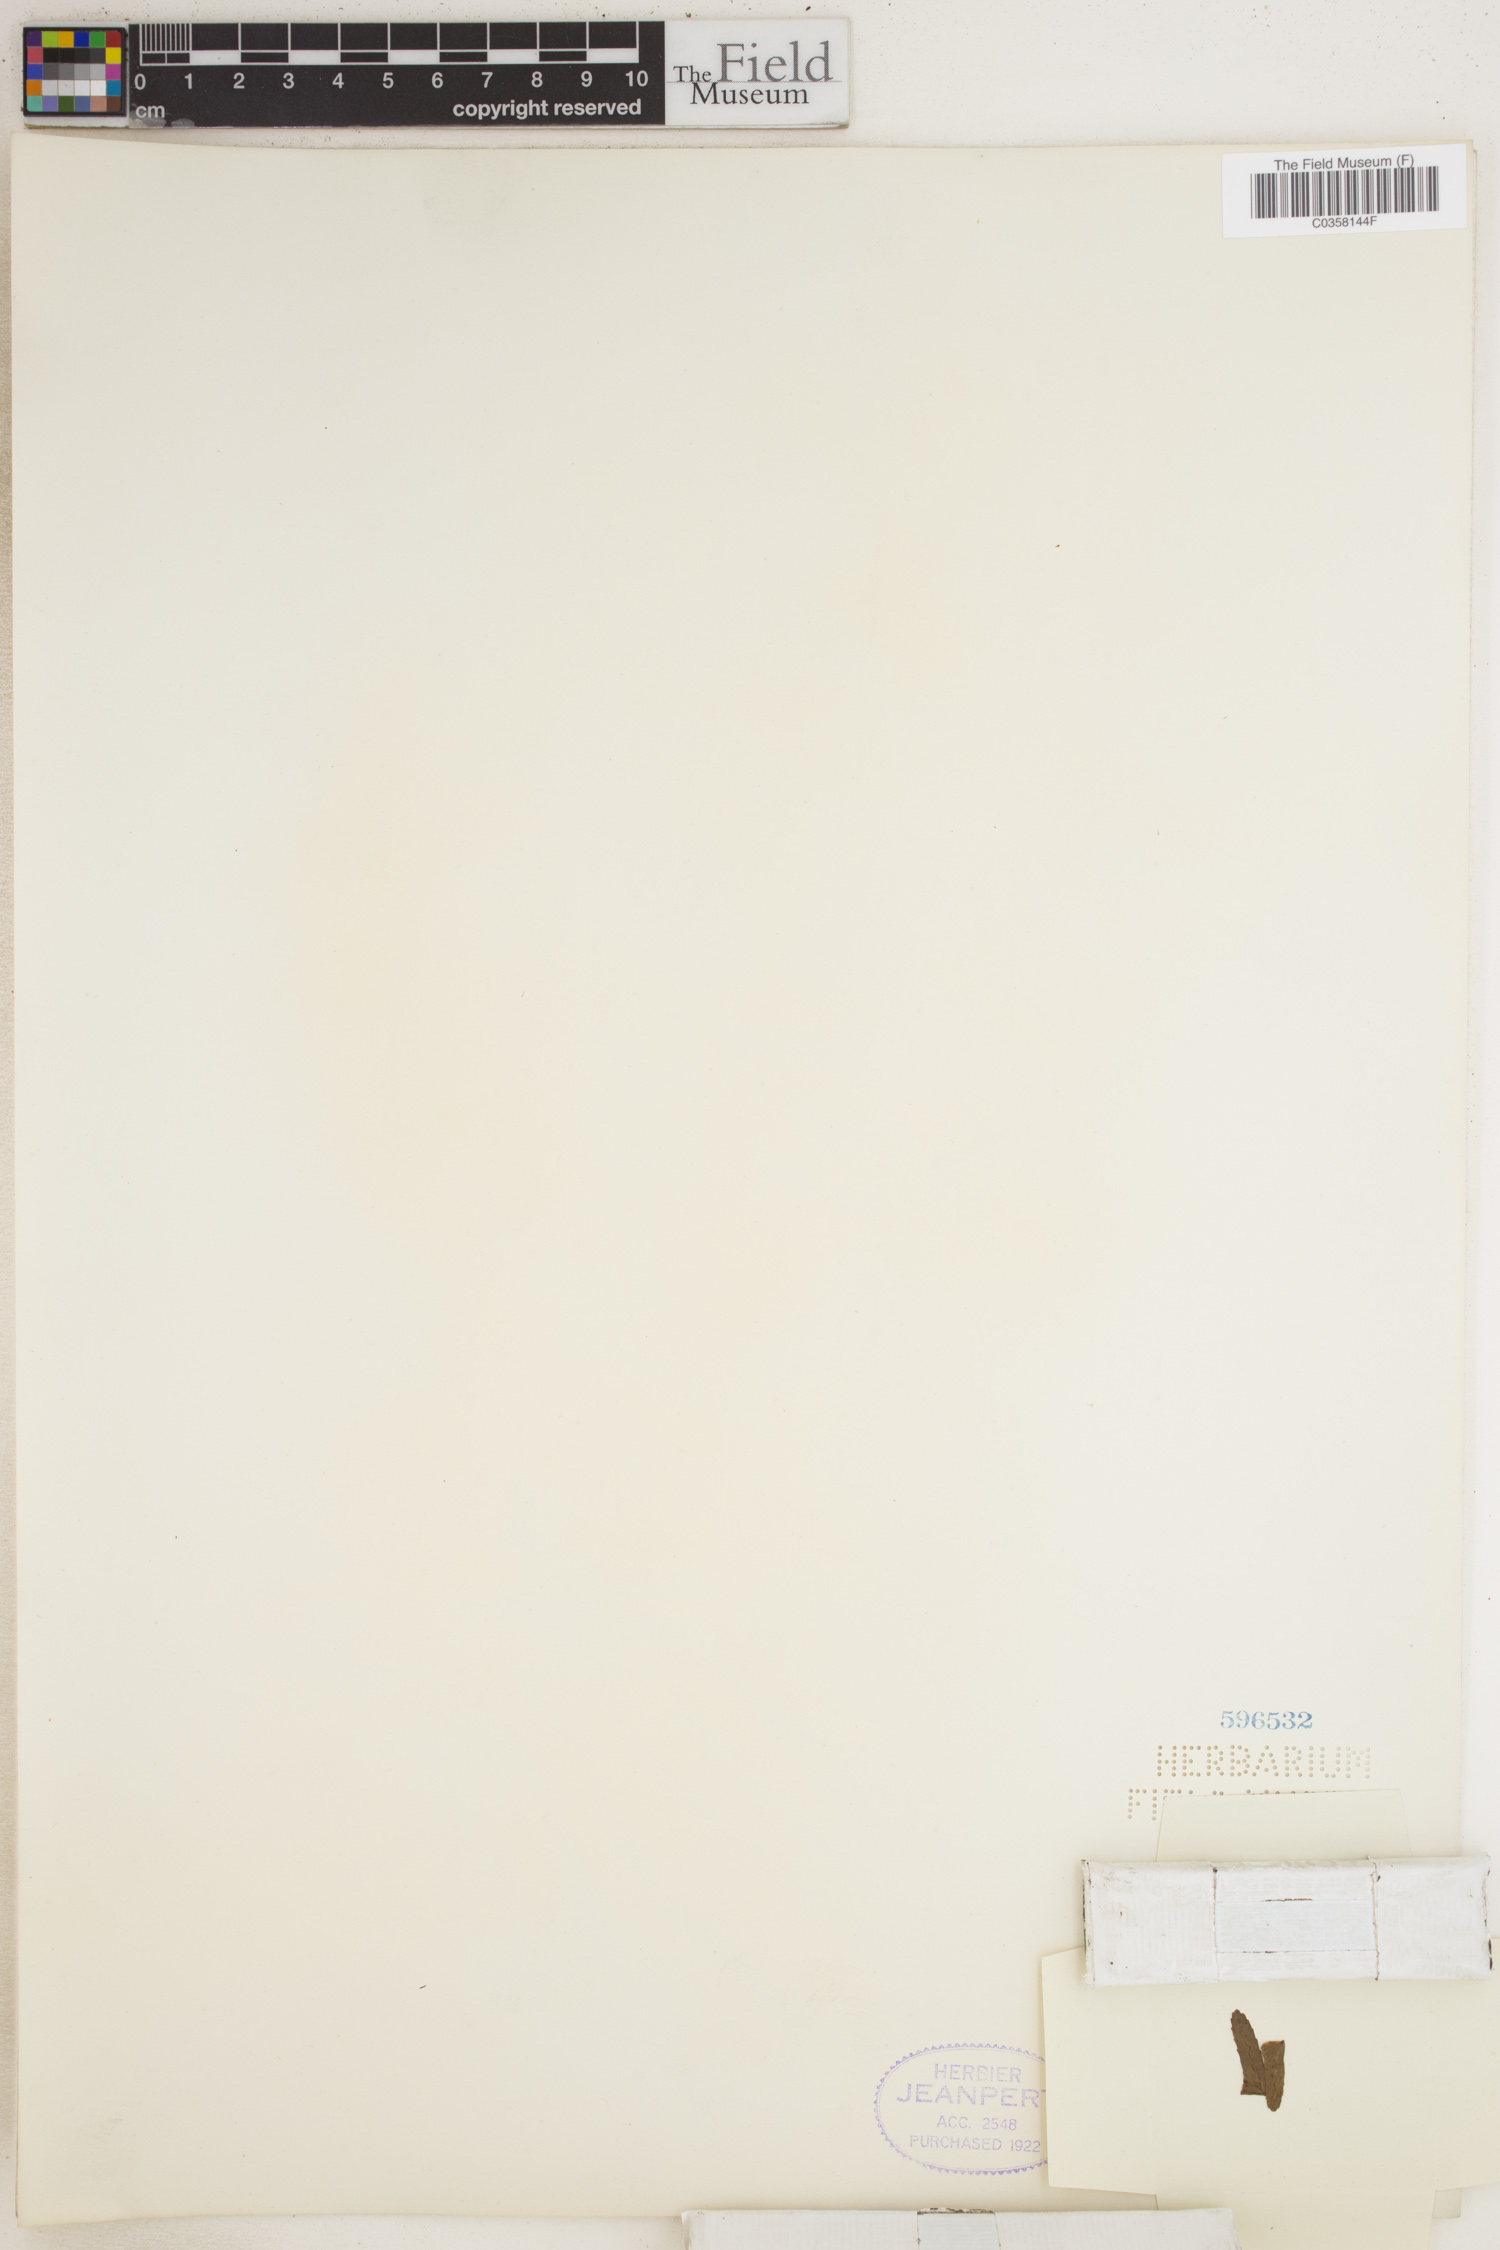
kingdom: Plantae
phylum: Tracheophyta
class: Polypodiopsida
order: Polypodiales
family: Nephrolepidaceae
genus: Nephrolepis
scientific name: Nephrolepis
